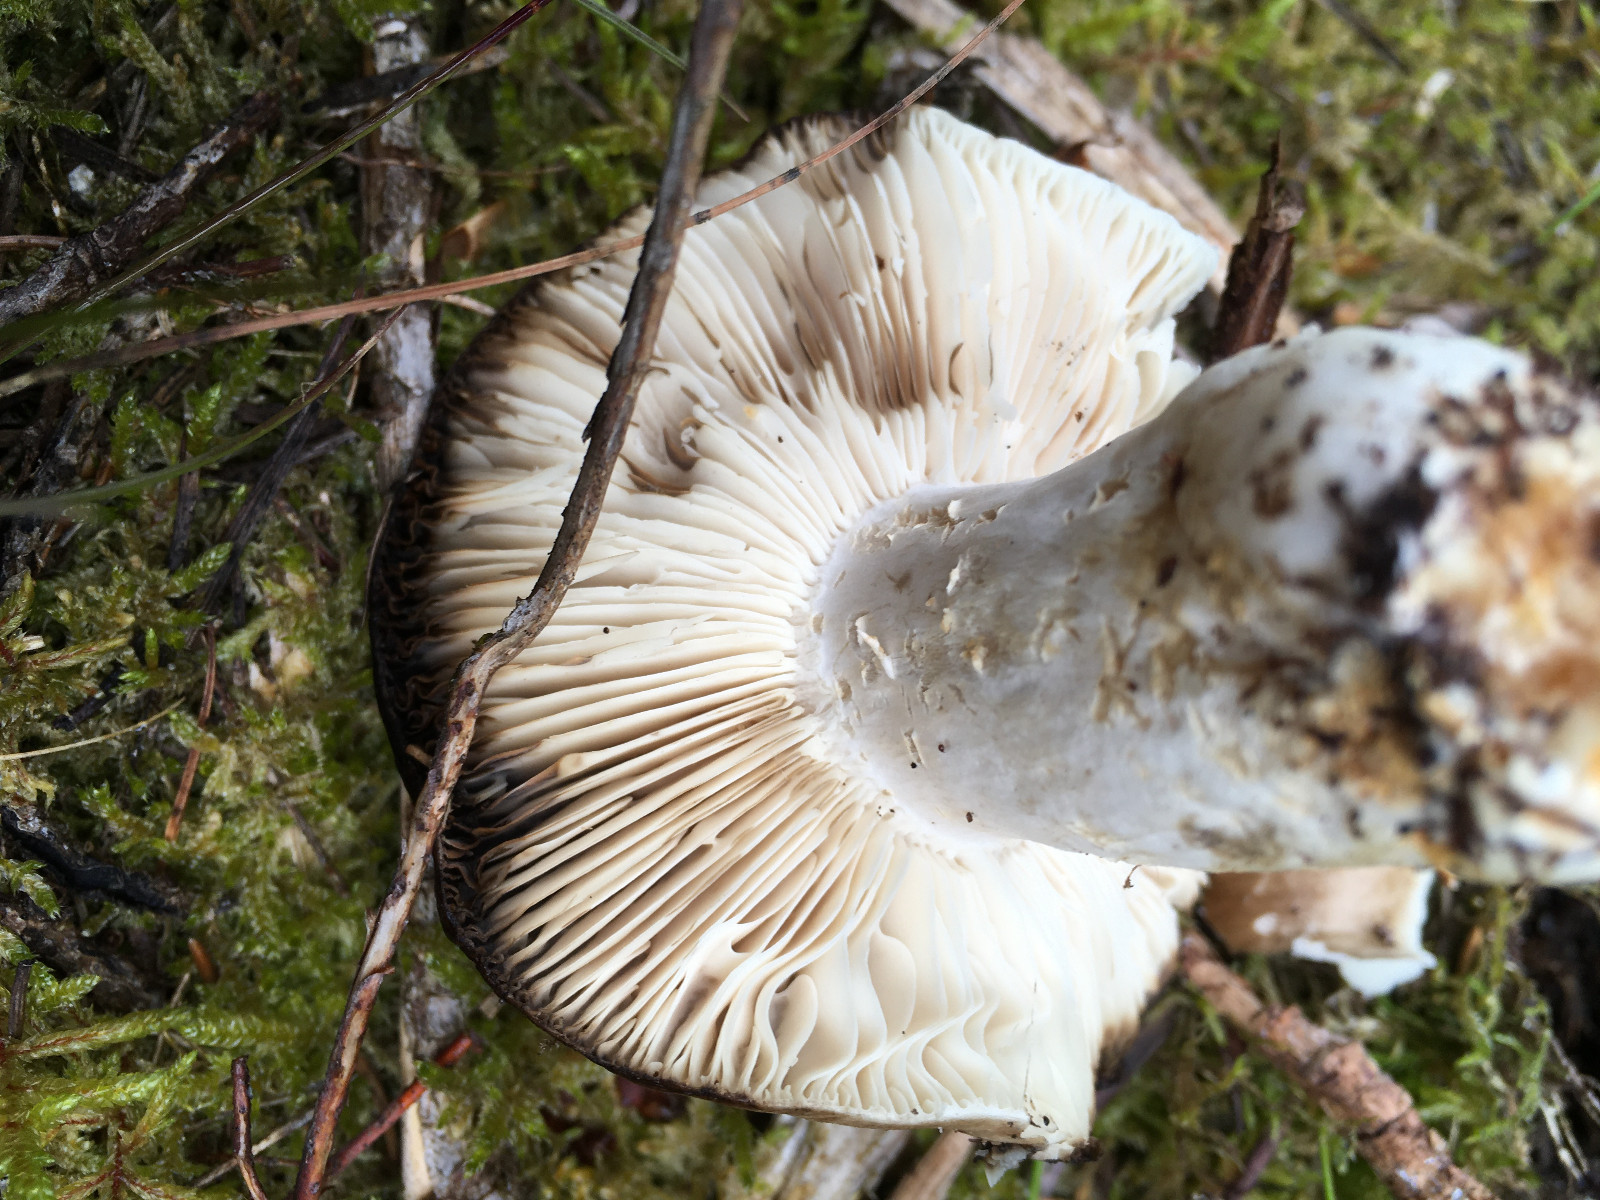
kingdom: Fungi
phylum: Basidiomycota
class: Agaricomycetes
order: Russulales
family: Russulaceae
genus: Russula
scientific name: Russula adusta
